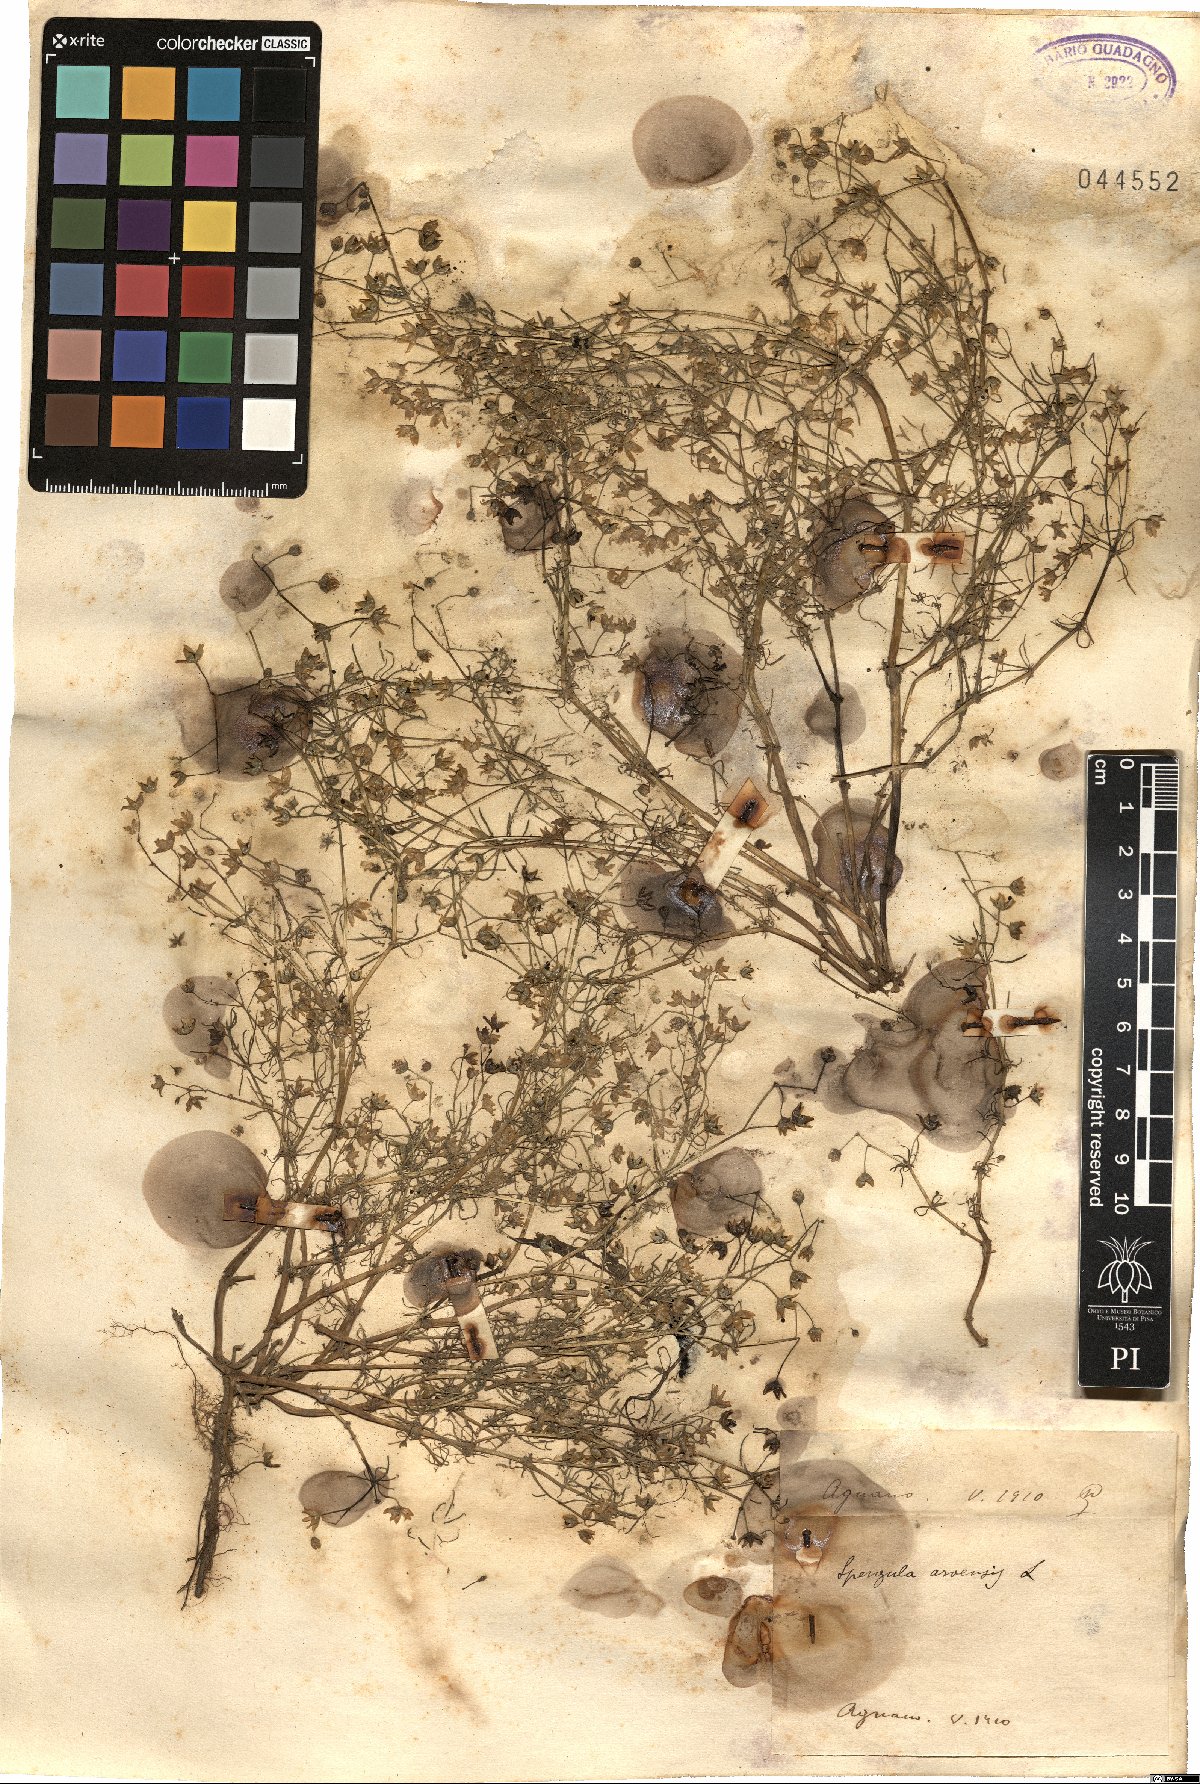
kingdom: Plantae
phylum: Tracheophyta
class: Magnoliopsida
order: Caryophyllales
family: Caryophyllaceae
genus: Spergula
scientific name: Spergula arvensis
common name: Corn spurrey
